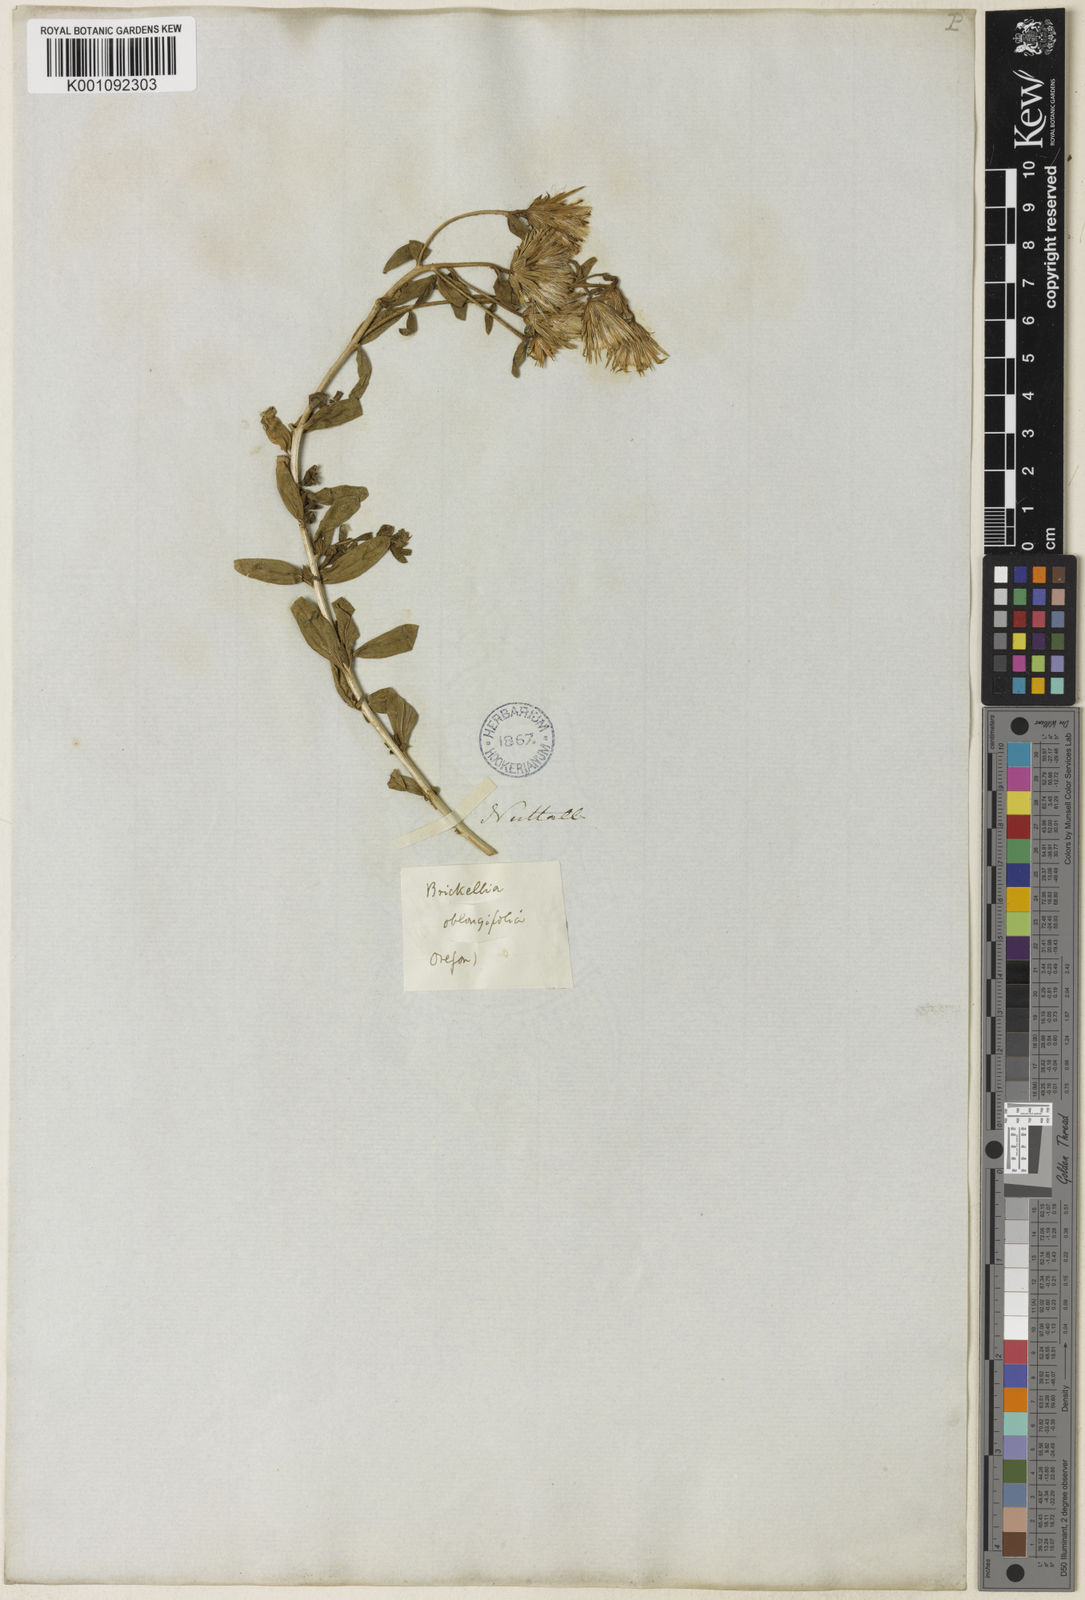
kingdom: Plantae
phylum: Tracheophyta
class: Magnoliopsida
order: Asterales
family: Asteraceae
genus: Brickellia
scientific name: Brickellia oblongifolia
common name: Mojave brickellbush
